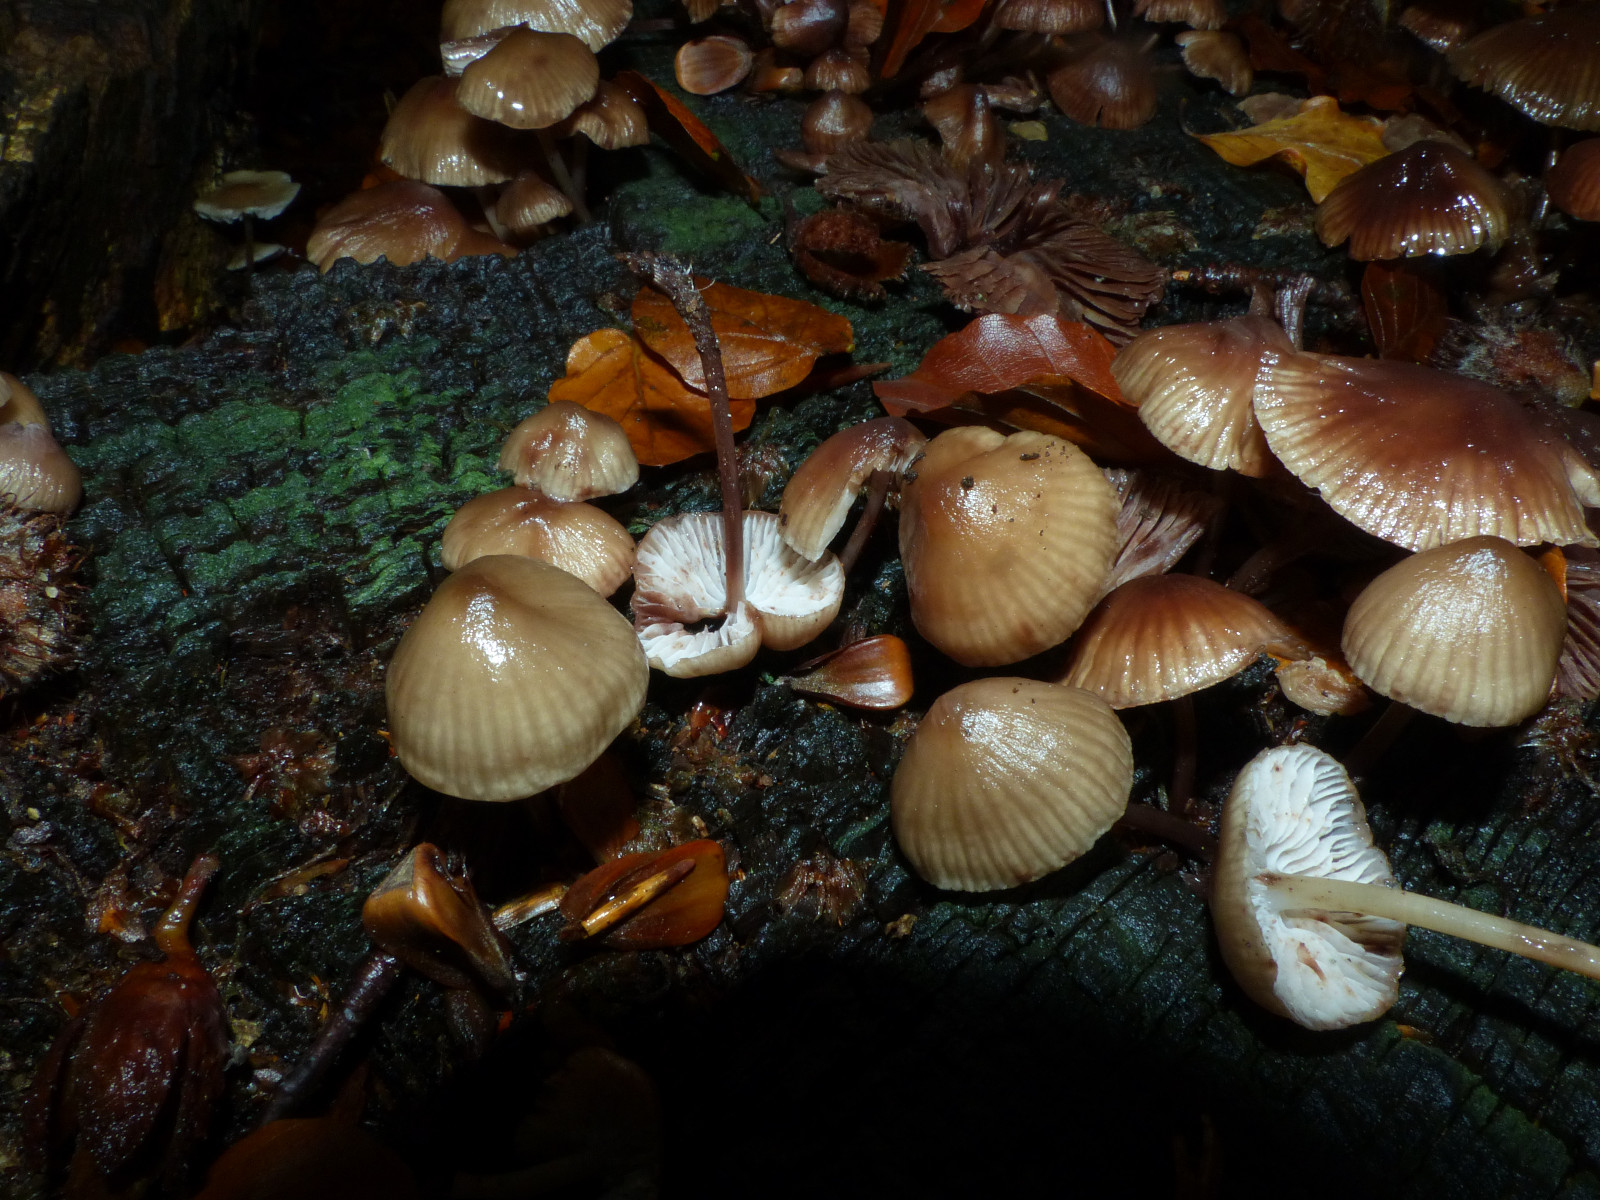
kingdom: Fungi
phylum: Basidiomycota
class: Agaricomycetes
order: Agaricales
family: Mycenaceae
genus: Mycena
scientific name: Mycena haematopus
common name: blødende huesvamp
